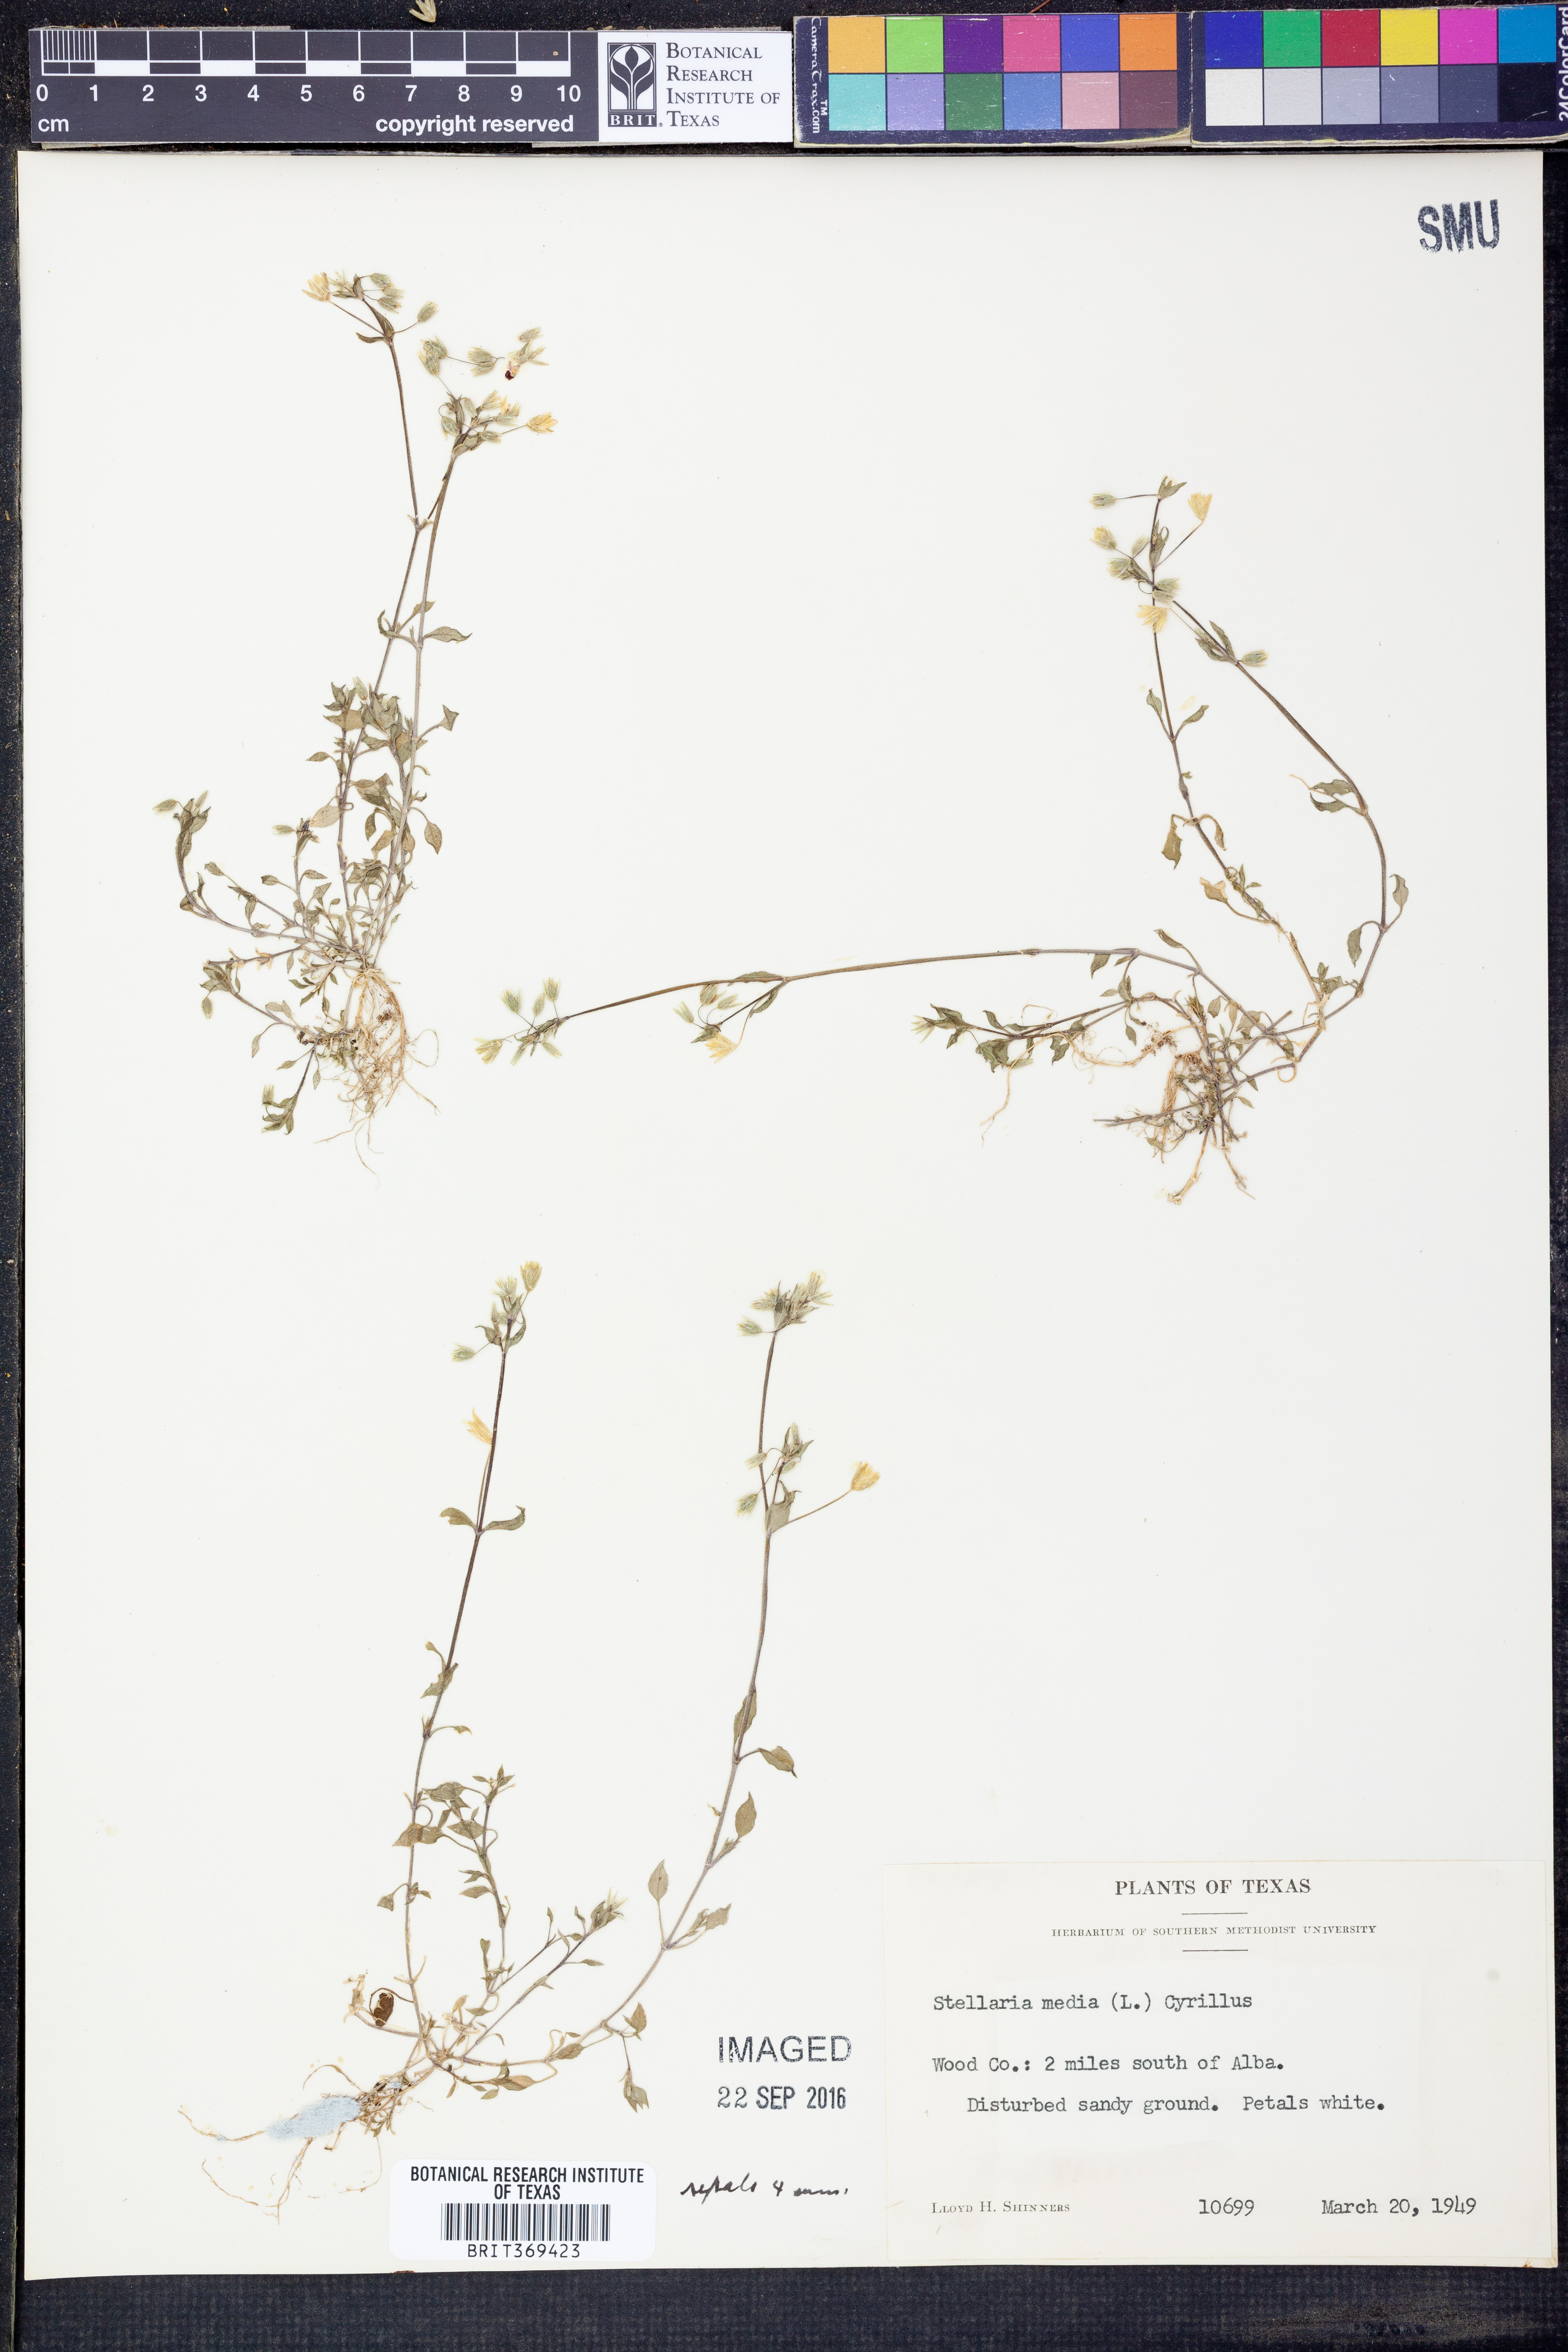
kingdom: Plantae
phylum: Tracheophyta
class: Magnoliopsida
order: Caryophyllales
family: Caryophyllaceae
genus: Stellaria
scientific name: Stellaria media
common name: Common chickweed
